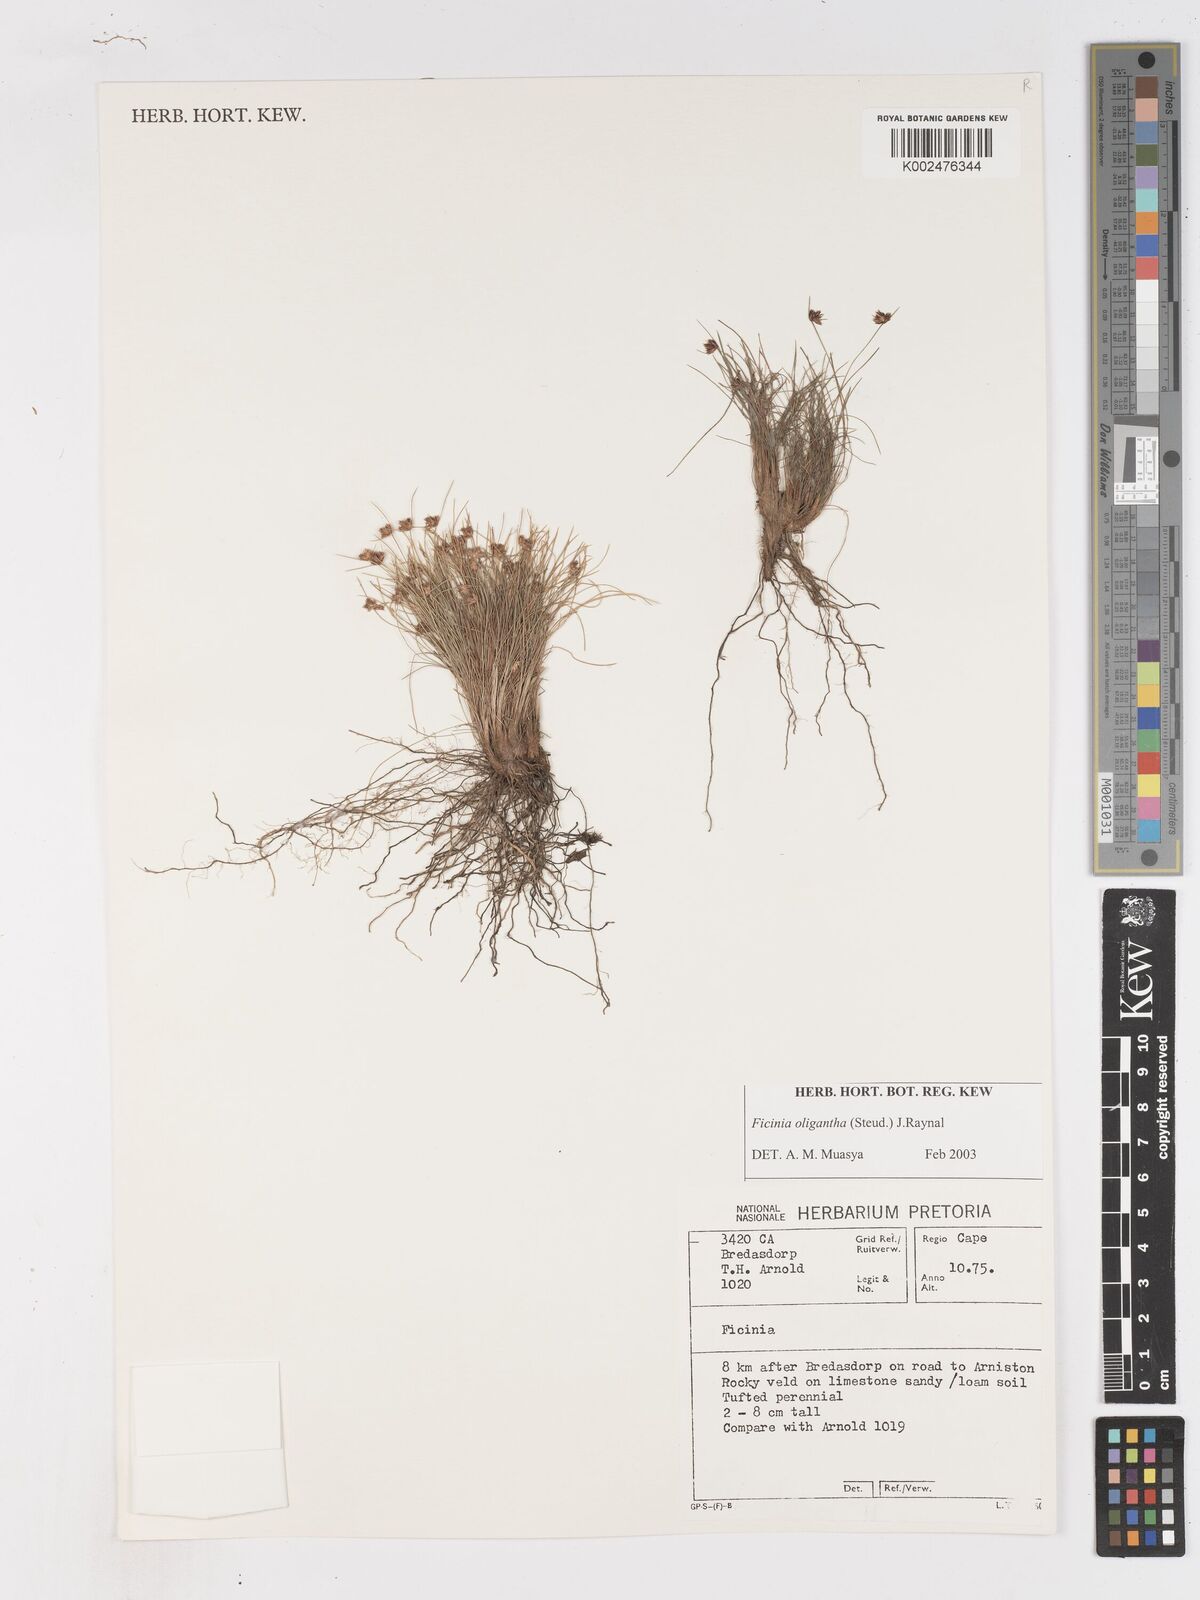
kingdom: Plantae
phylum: Tracheophyta
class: Liliopsida
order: Poales
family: Cyperaceae
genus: Ficinia
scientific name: Ficinia oligantha
